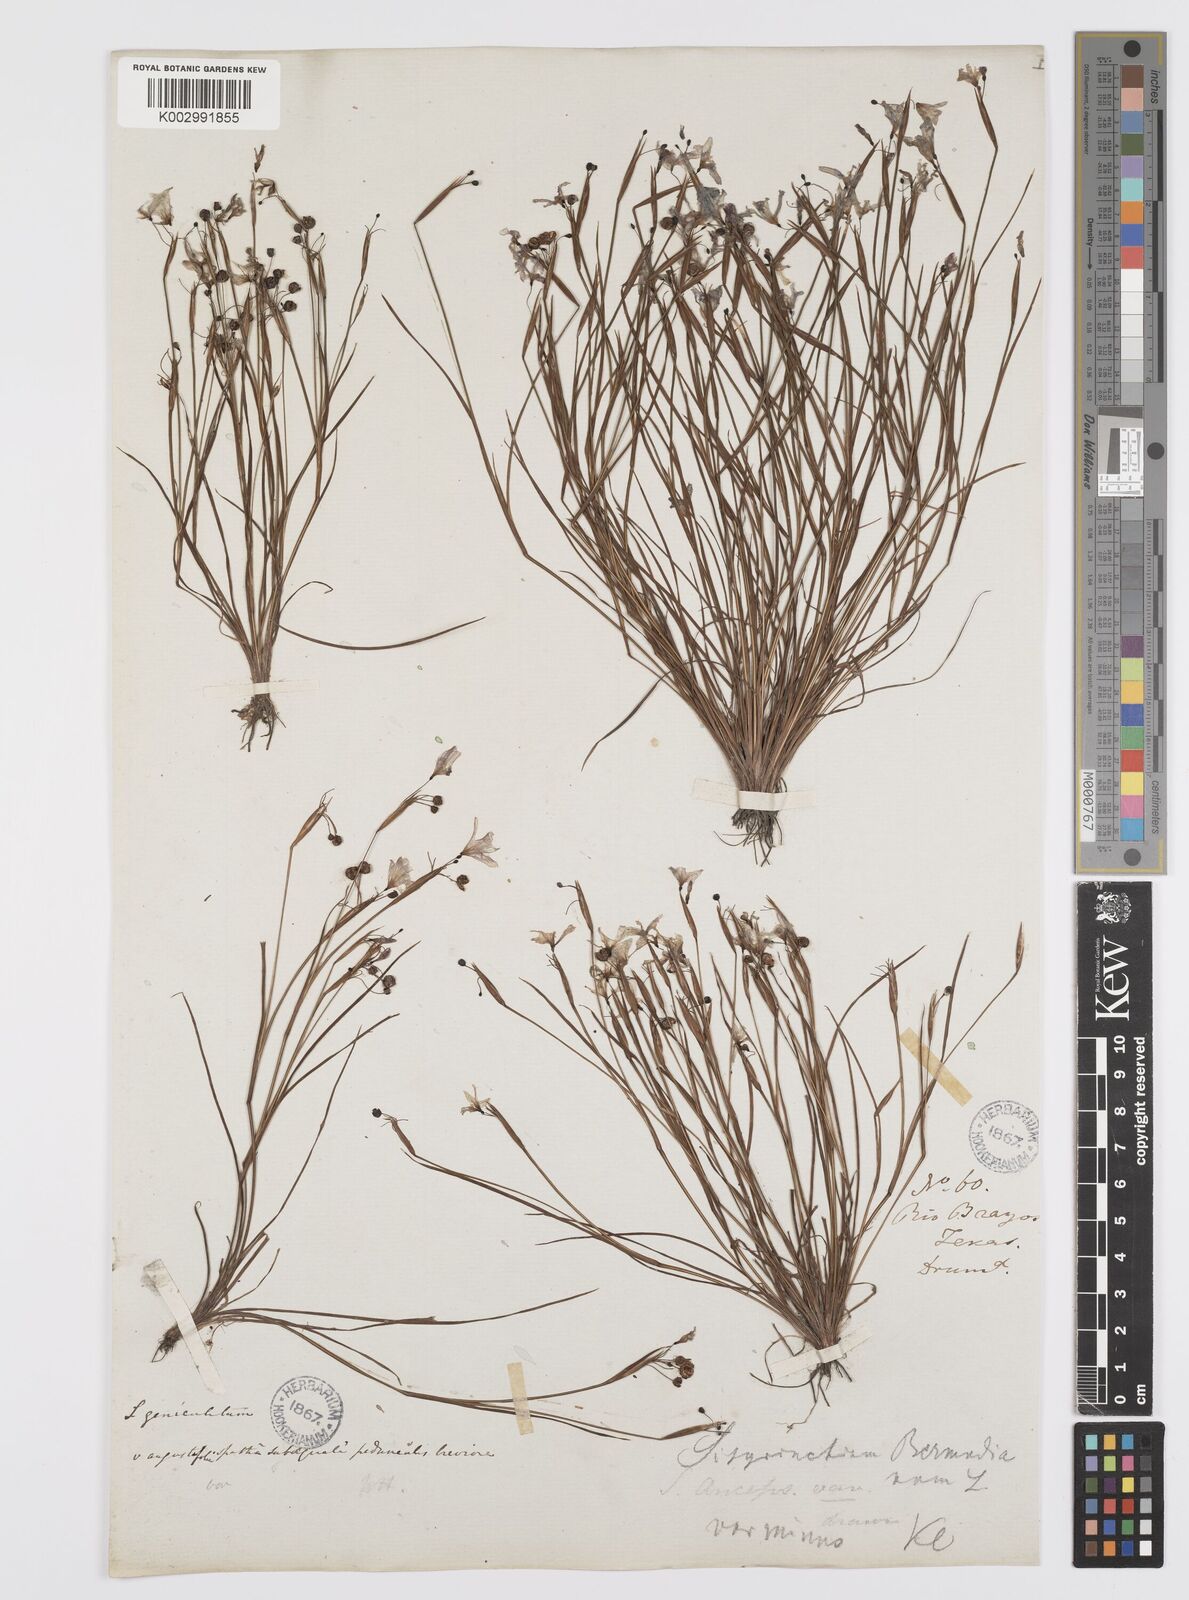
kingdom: Plantae
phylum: Tracheophyta
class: Liliopsida
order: Asparagales
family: Iridaceae
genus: Sisyrinchium
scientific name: Sisyrinchium bermudiana
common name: Blue-eyed-grass
